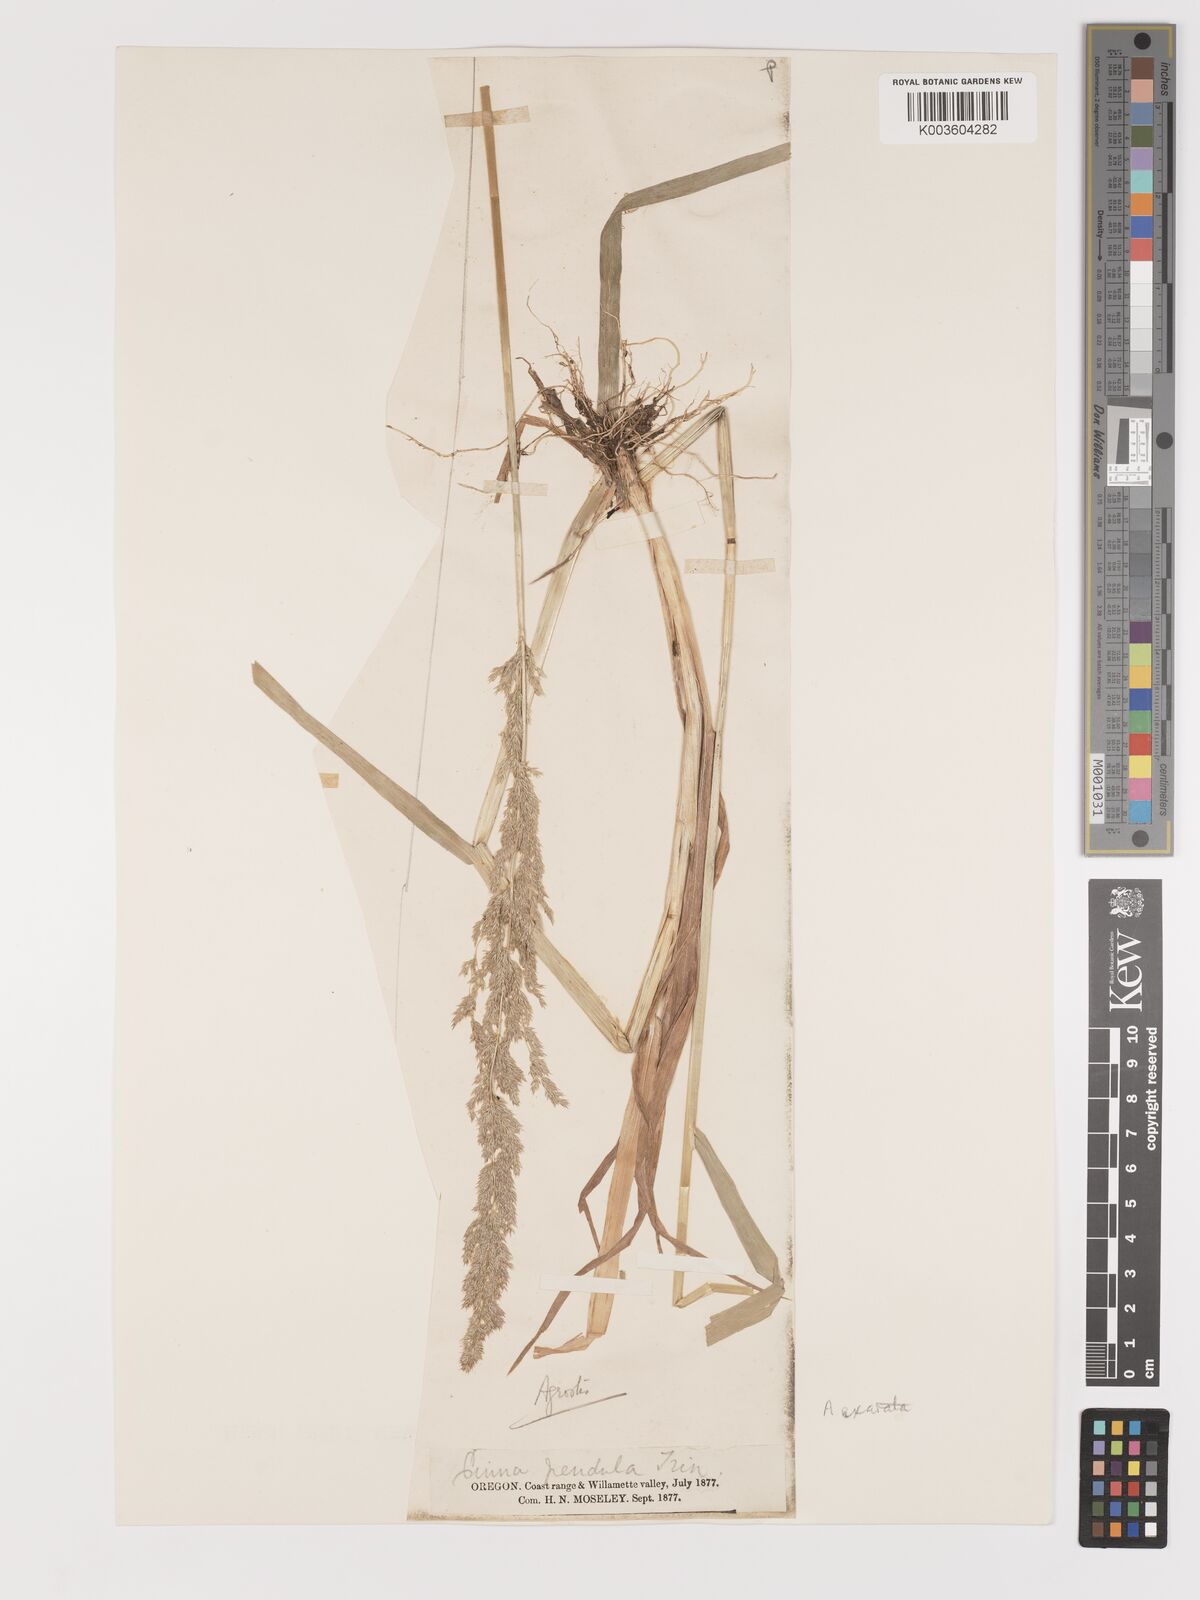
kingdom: Plantae
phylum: Tracheophyta
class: Liliopsida
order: Poales
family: Poaceae
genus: Agrostis
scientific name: Agrostis exarata
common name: Spike bent
